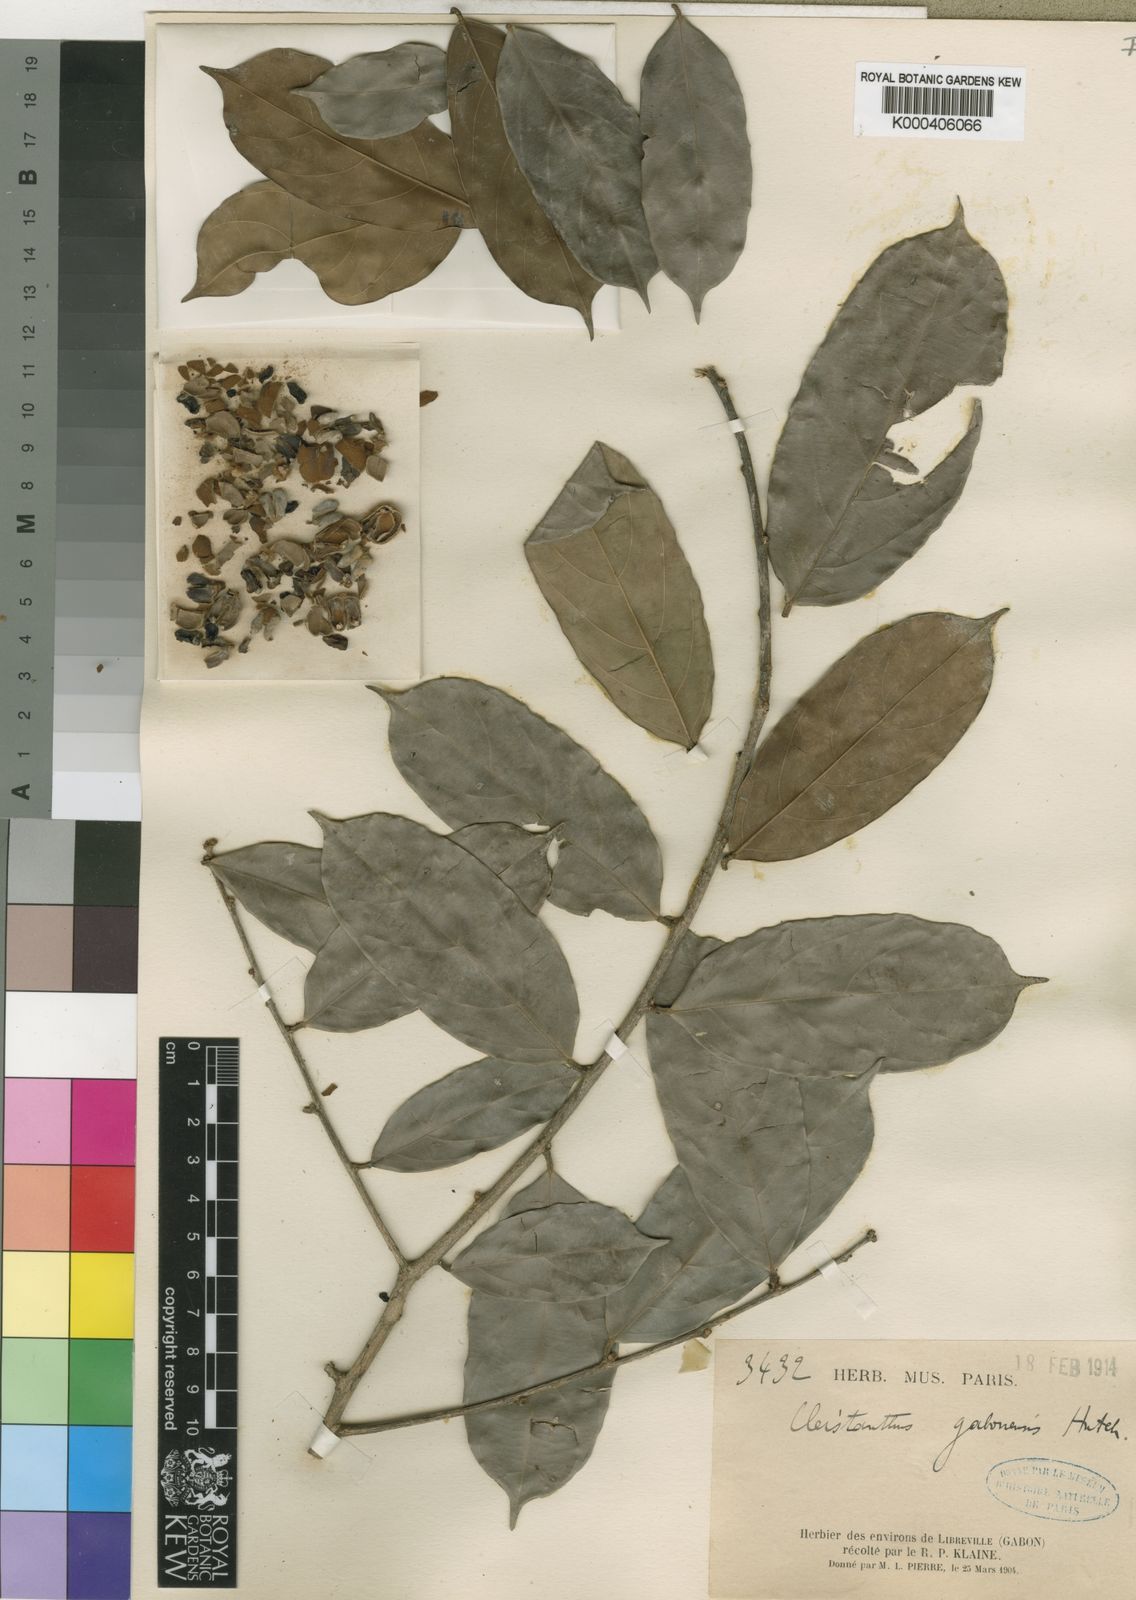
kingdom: Plantae
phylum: Tracheophyta
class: Magnoliopsida
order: Malpighiales
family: Phyllanthaceae
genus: Cleistanthus
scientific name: Cleistanthus gabonensis
